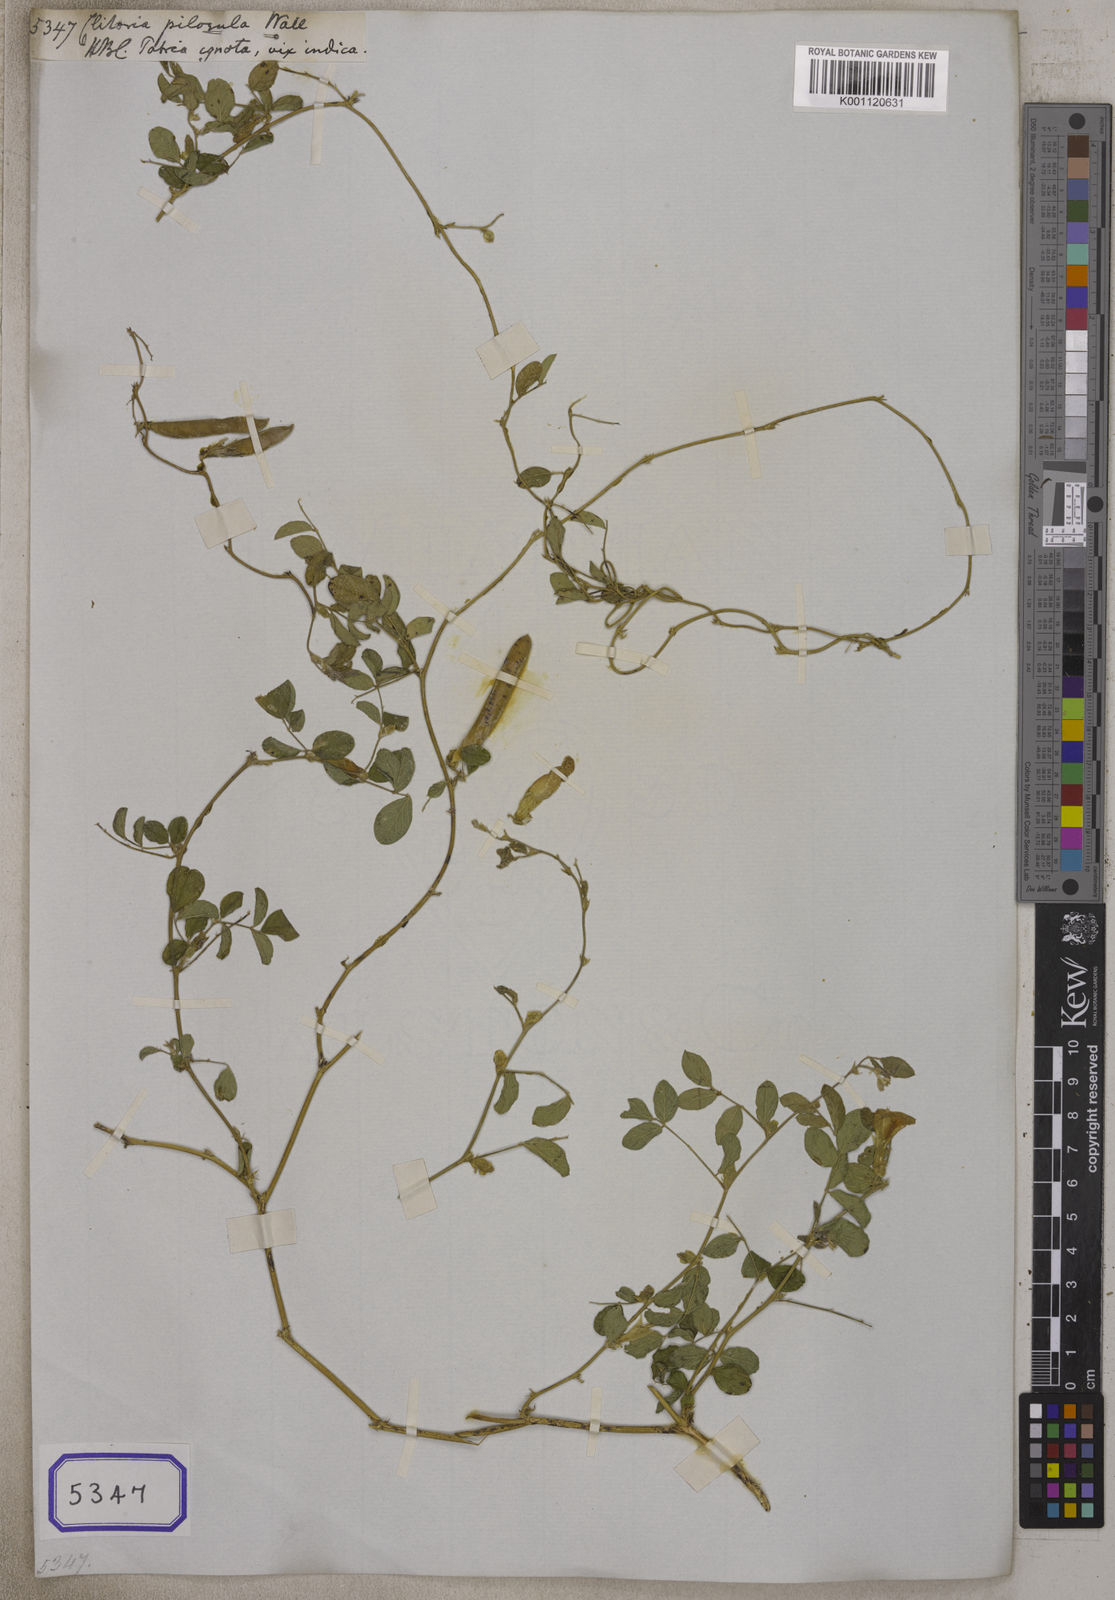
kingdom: Plantae
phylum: Tracheophyta
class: Magnoliopsida
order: Fabales
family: Fabaceae
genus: Clitoria
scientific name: Clitoria
